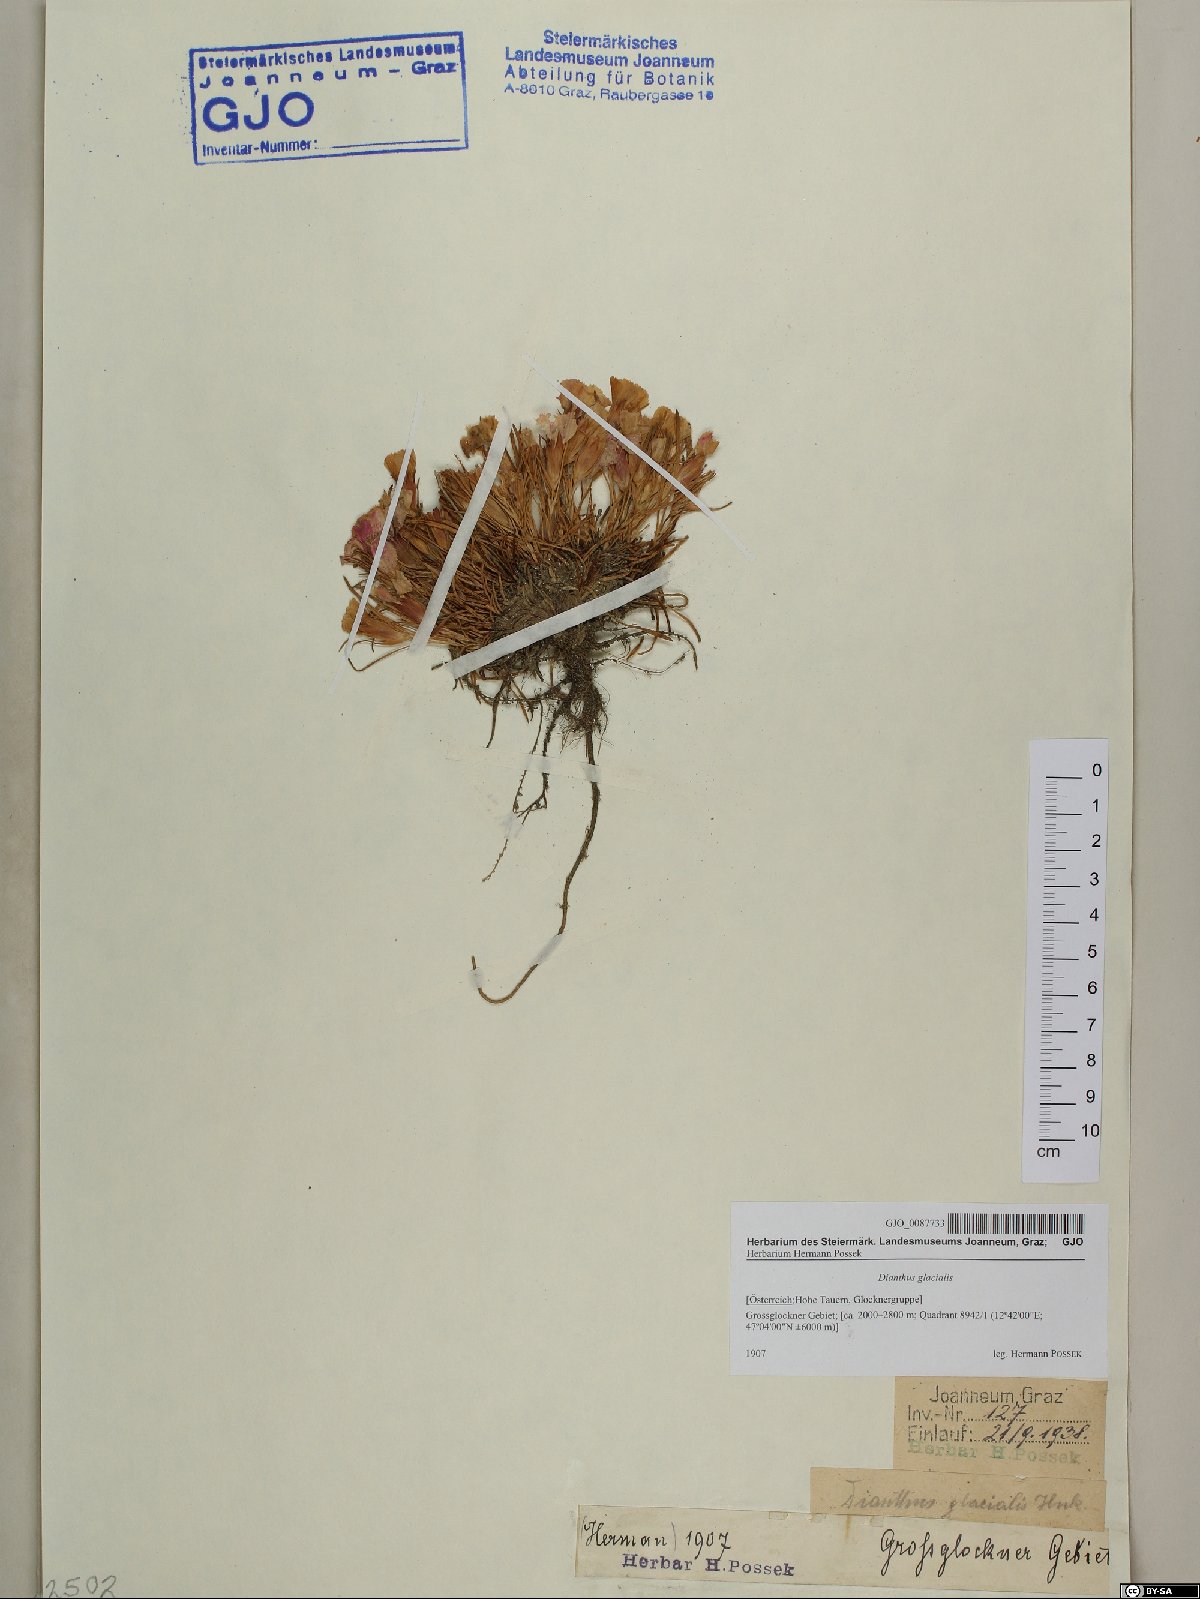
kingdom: Plantae
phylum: Tracheophyta
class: Magnoliopsida
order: Caryophyllales
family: Caryophyllaceae
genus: Dianthus
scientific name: Dianthus glacialis
